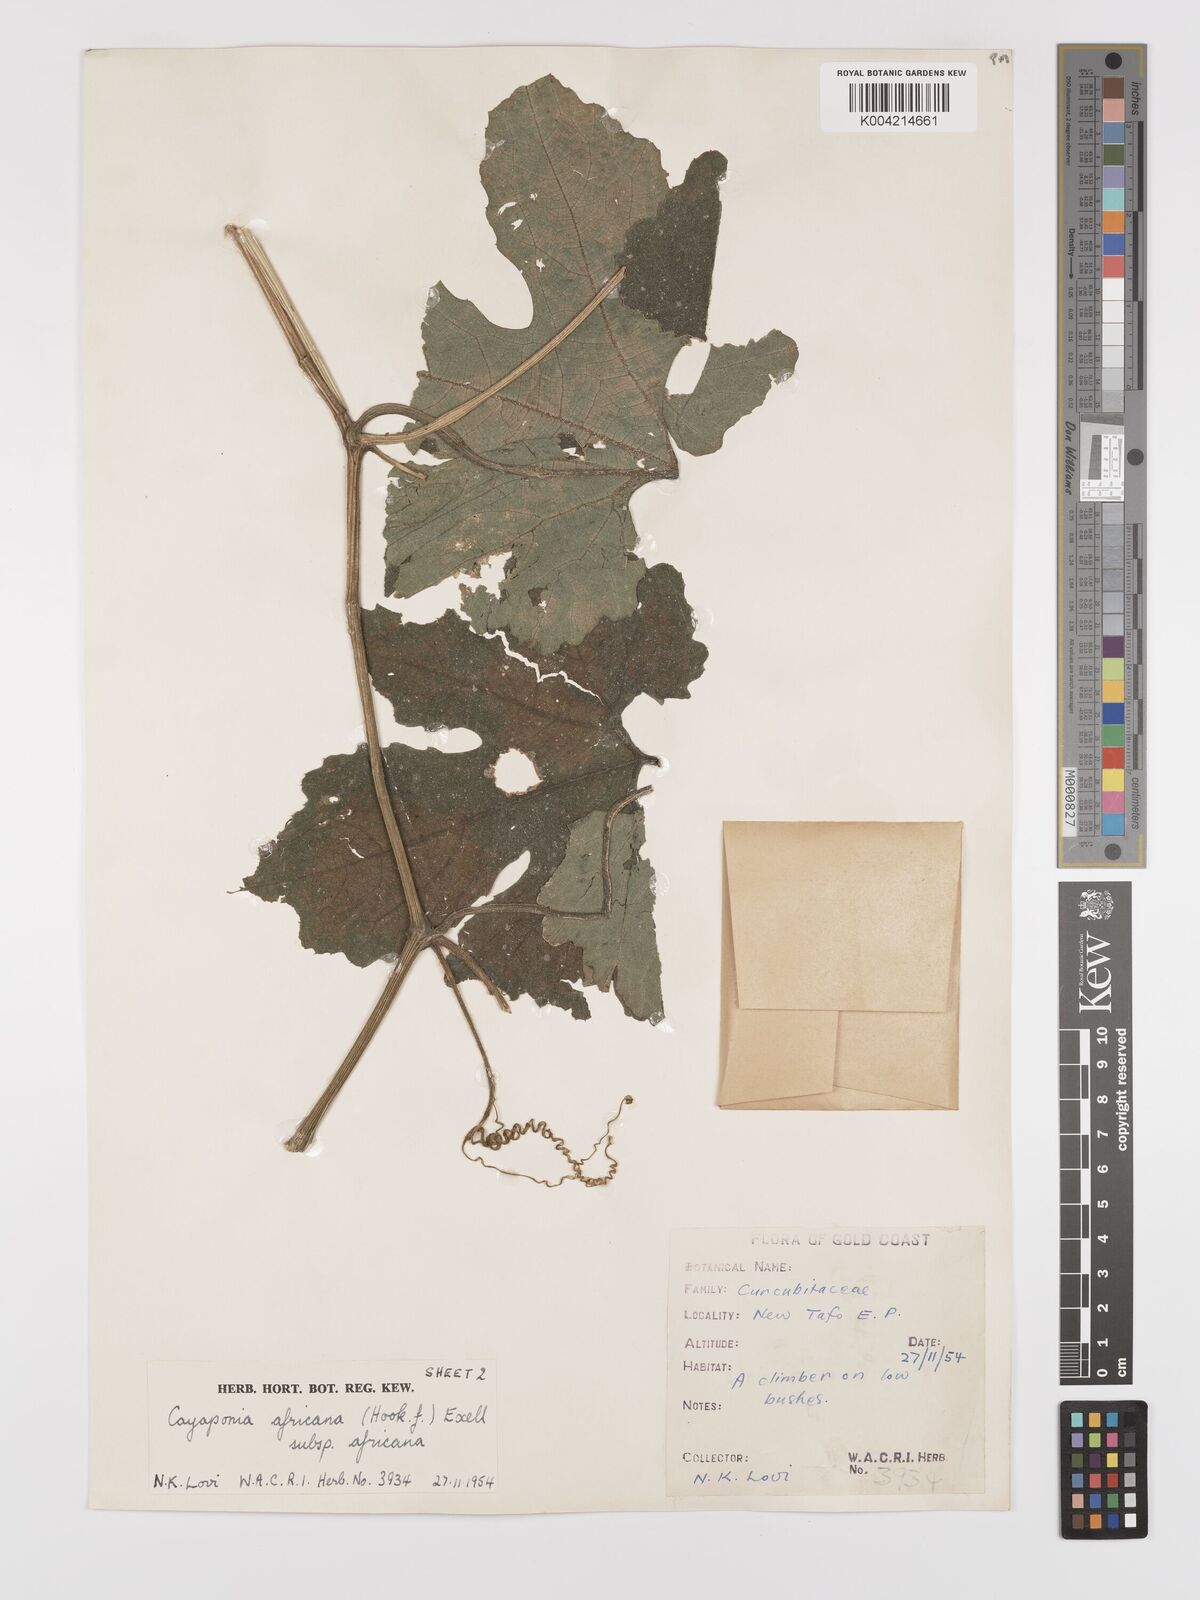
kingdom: Plantae
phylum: Tracheophyta
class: Magnoliopsida
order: Cucurbitales
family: Cucurbitaceae
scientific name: Cucurbitaceae
